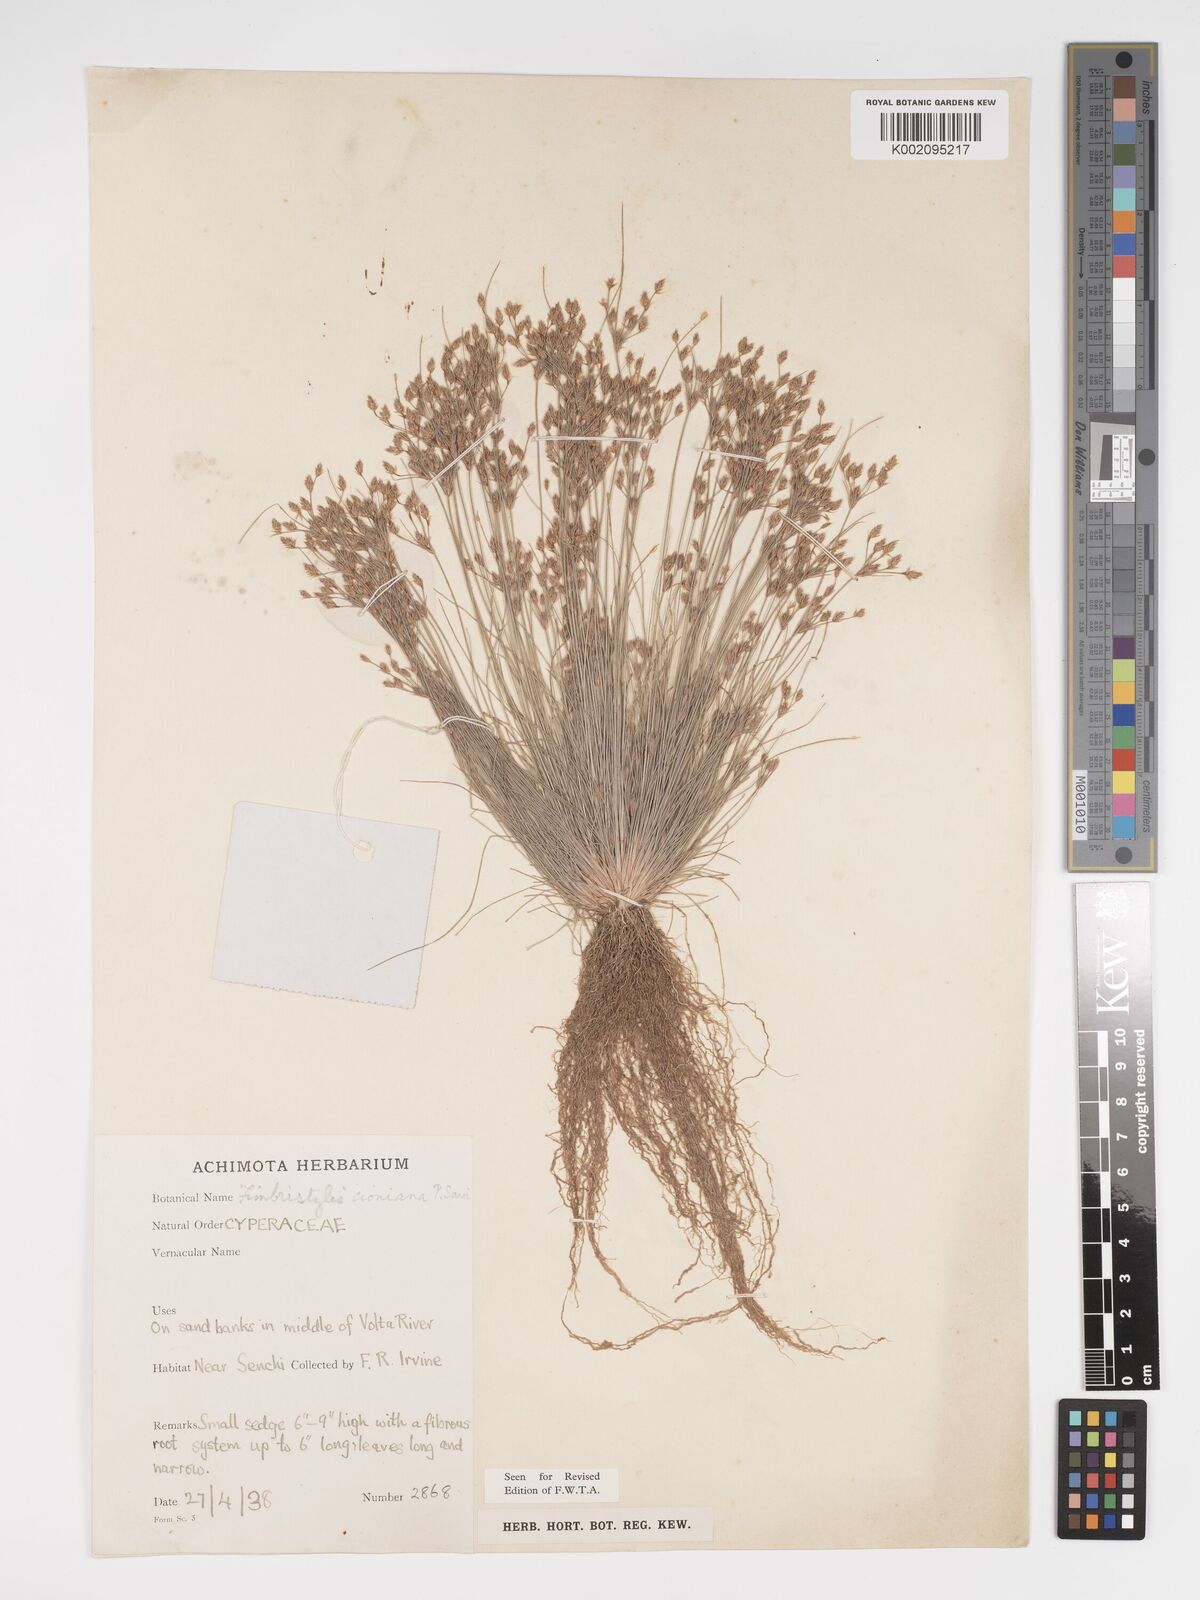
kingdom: Plantae
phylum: Tracheophyta
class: Liliopsida
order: Poales
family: Cyperaceae
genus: Bulbostylis
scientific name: Bulbostylis cioniana
